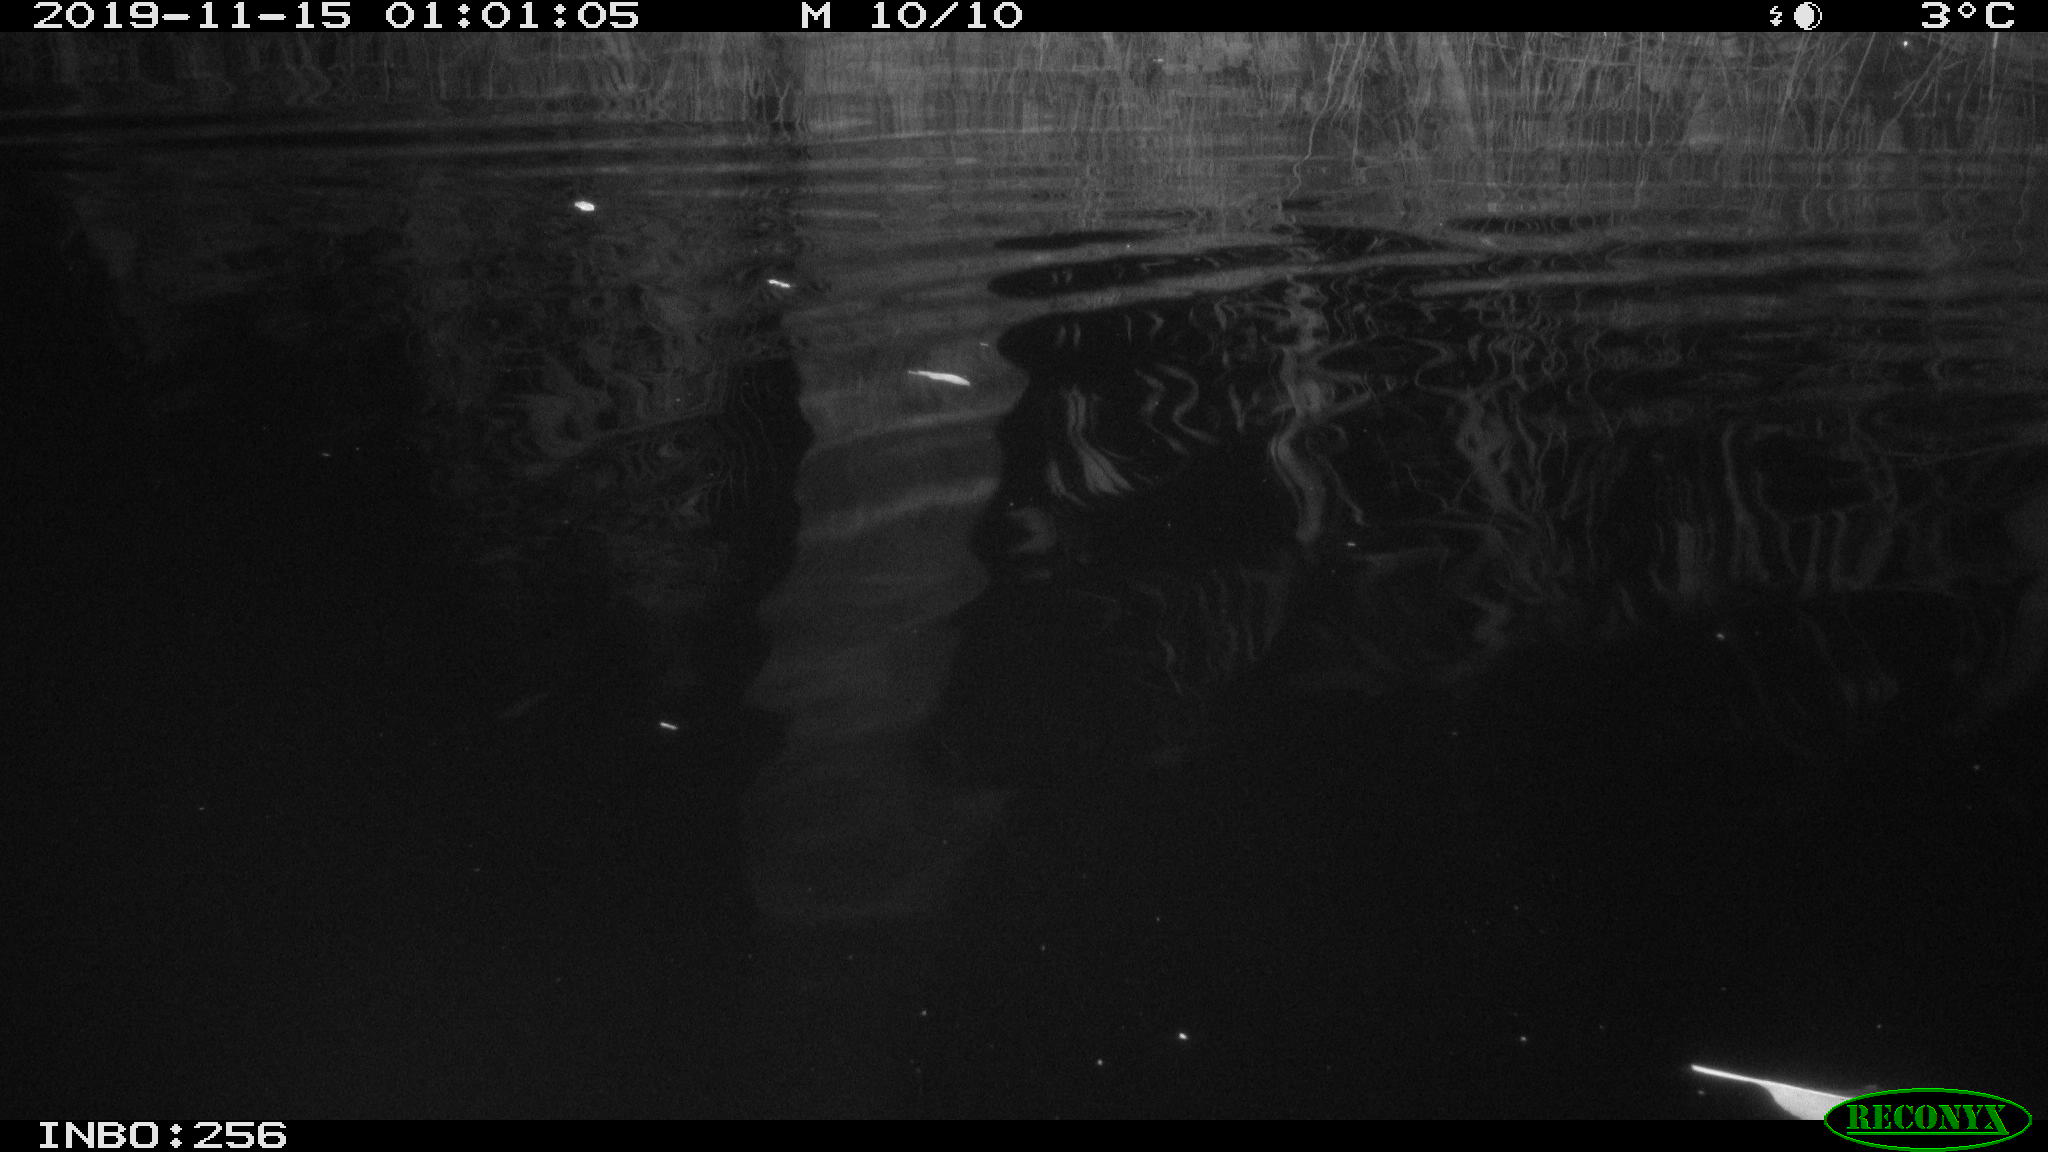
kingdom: Animalia
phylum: Chordata
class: Mammalia
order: Rodentia
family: Cricetidae
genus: Ondatra
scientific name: Ondatra zibethicus
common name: Muskrat
